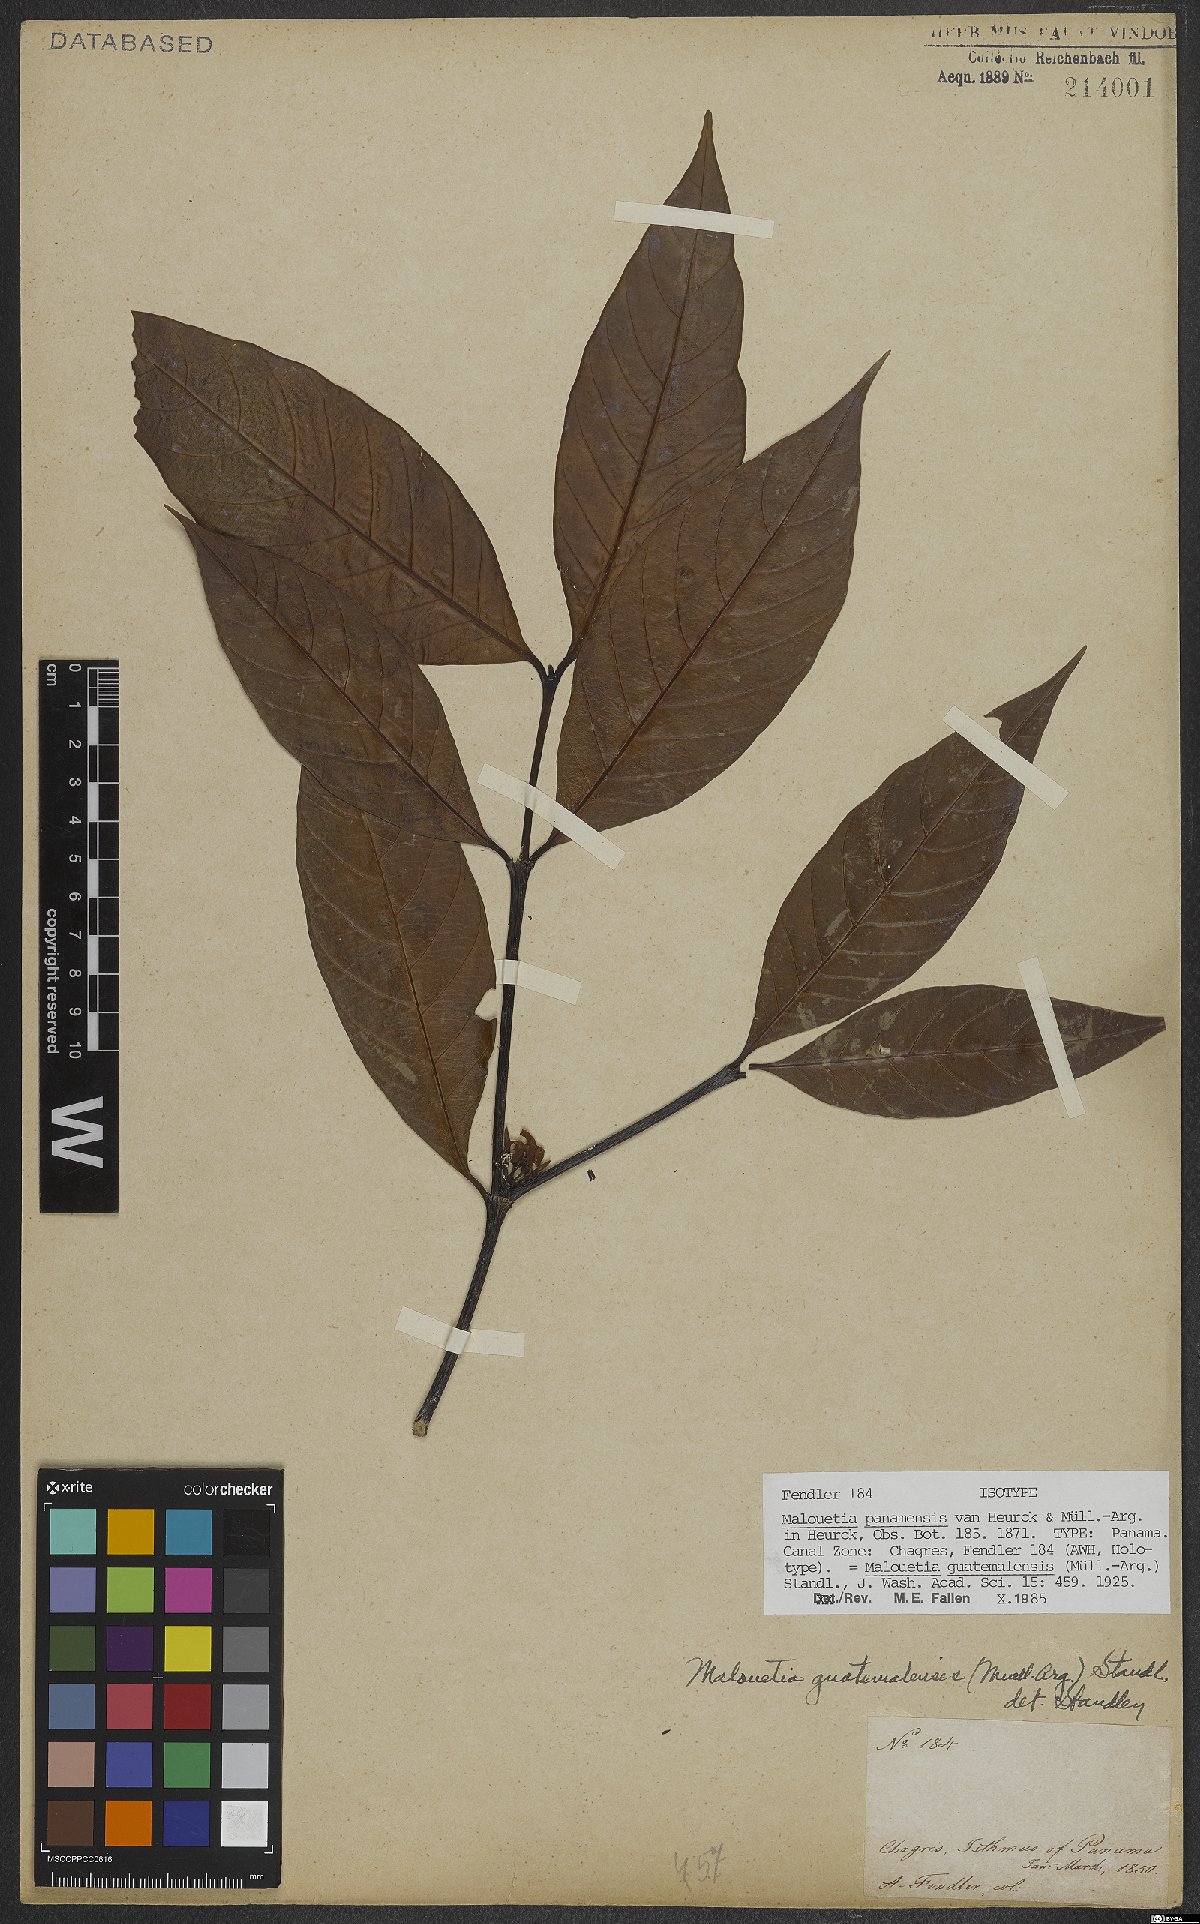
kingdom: Plantae
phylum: Tracheophyta
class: Magnoliopsida
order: Gentianales
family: Apocynaceae
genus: Malouetia
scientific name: Malouetia guatemalensis
